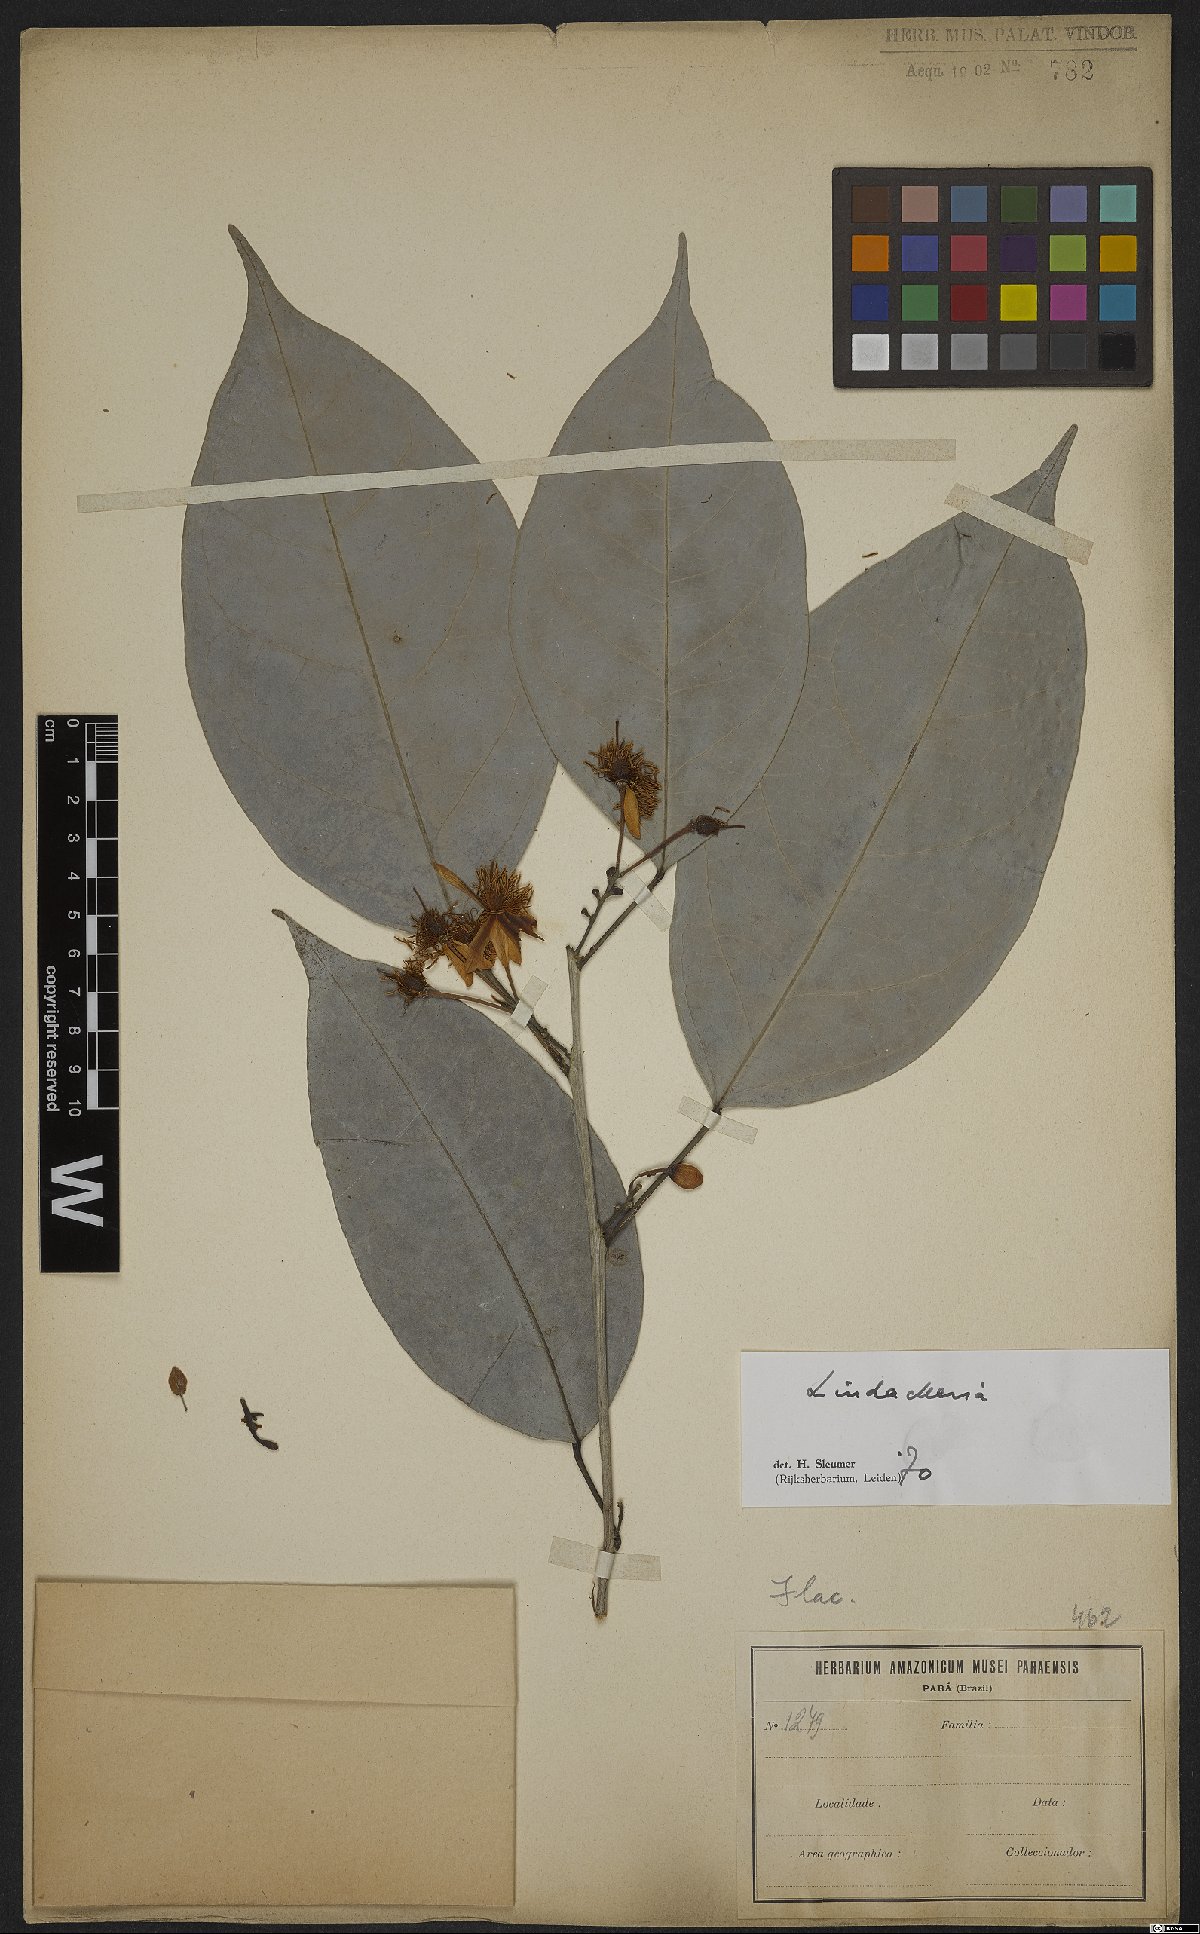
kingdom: Plantae
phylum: Tracheophyta
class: Magnoliopsida
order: Malpighiales
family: Achariaceae
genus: Lindackeria
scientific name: Lindackeria
